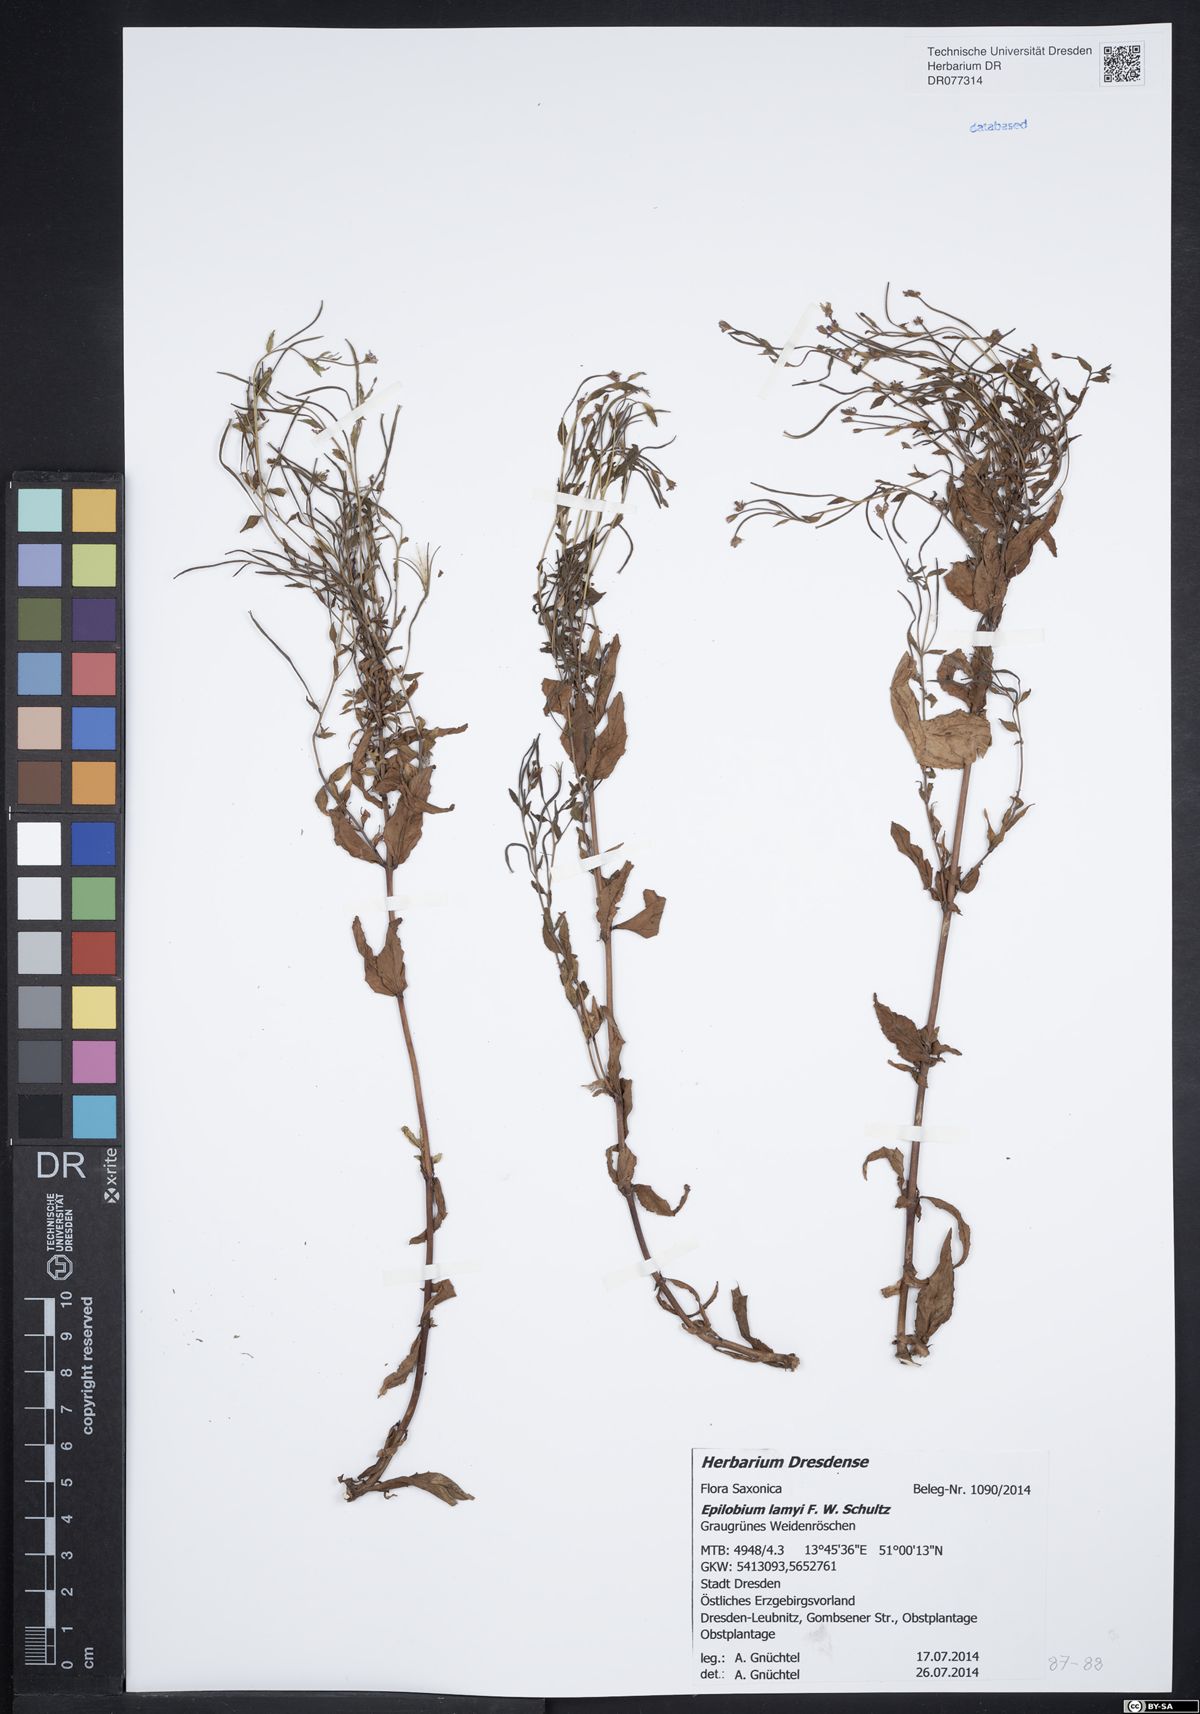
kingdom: Plantae
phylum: Tracheophyta
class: Magnoliopsida
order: Myrtales
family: Onagraceae
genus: Epilobium
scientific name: Epilobium lamyi
